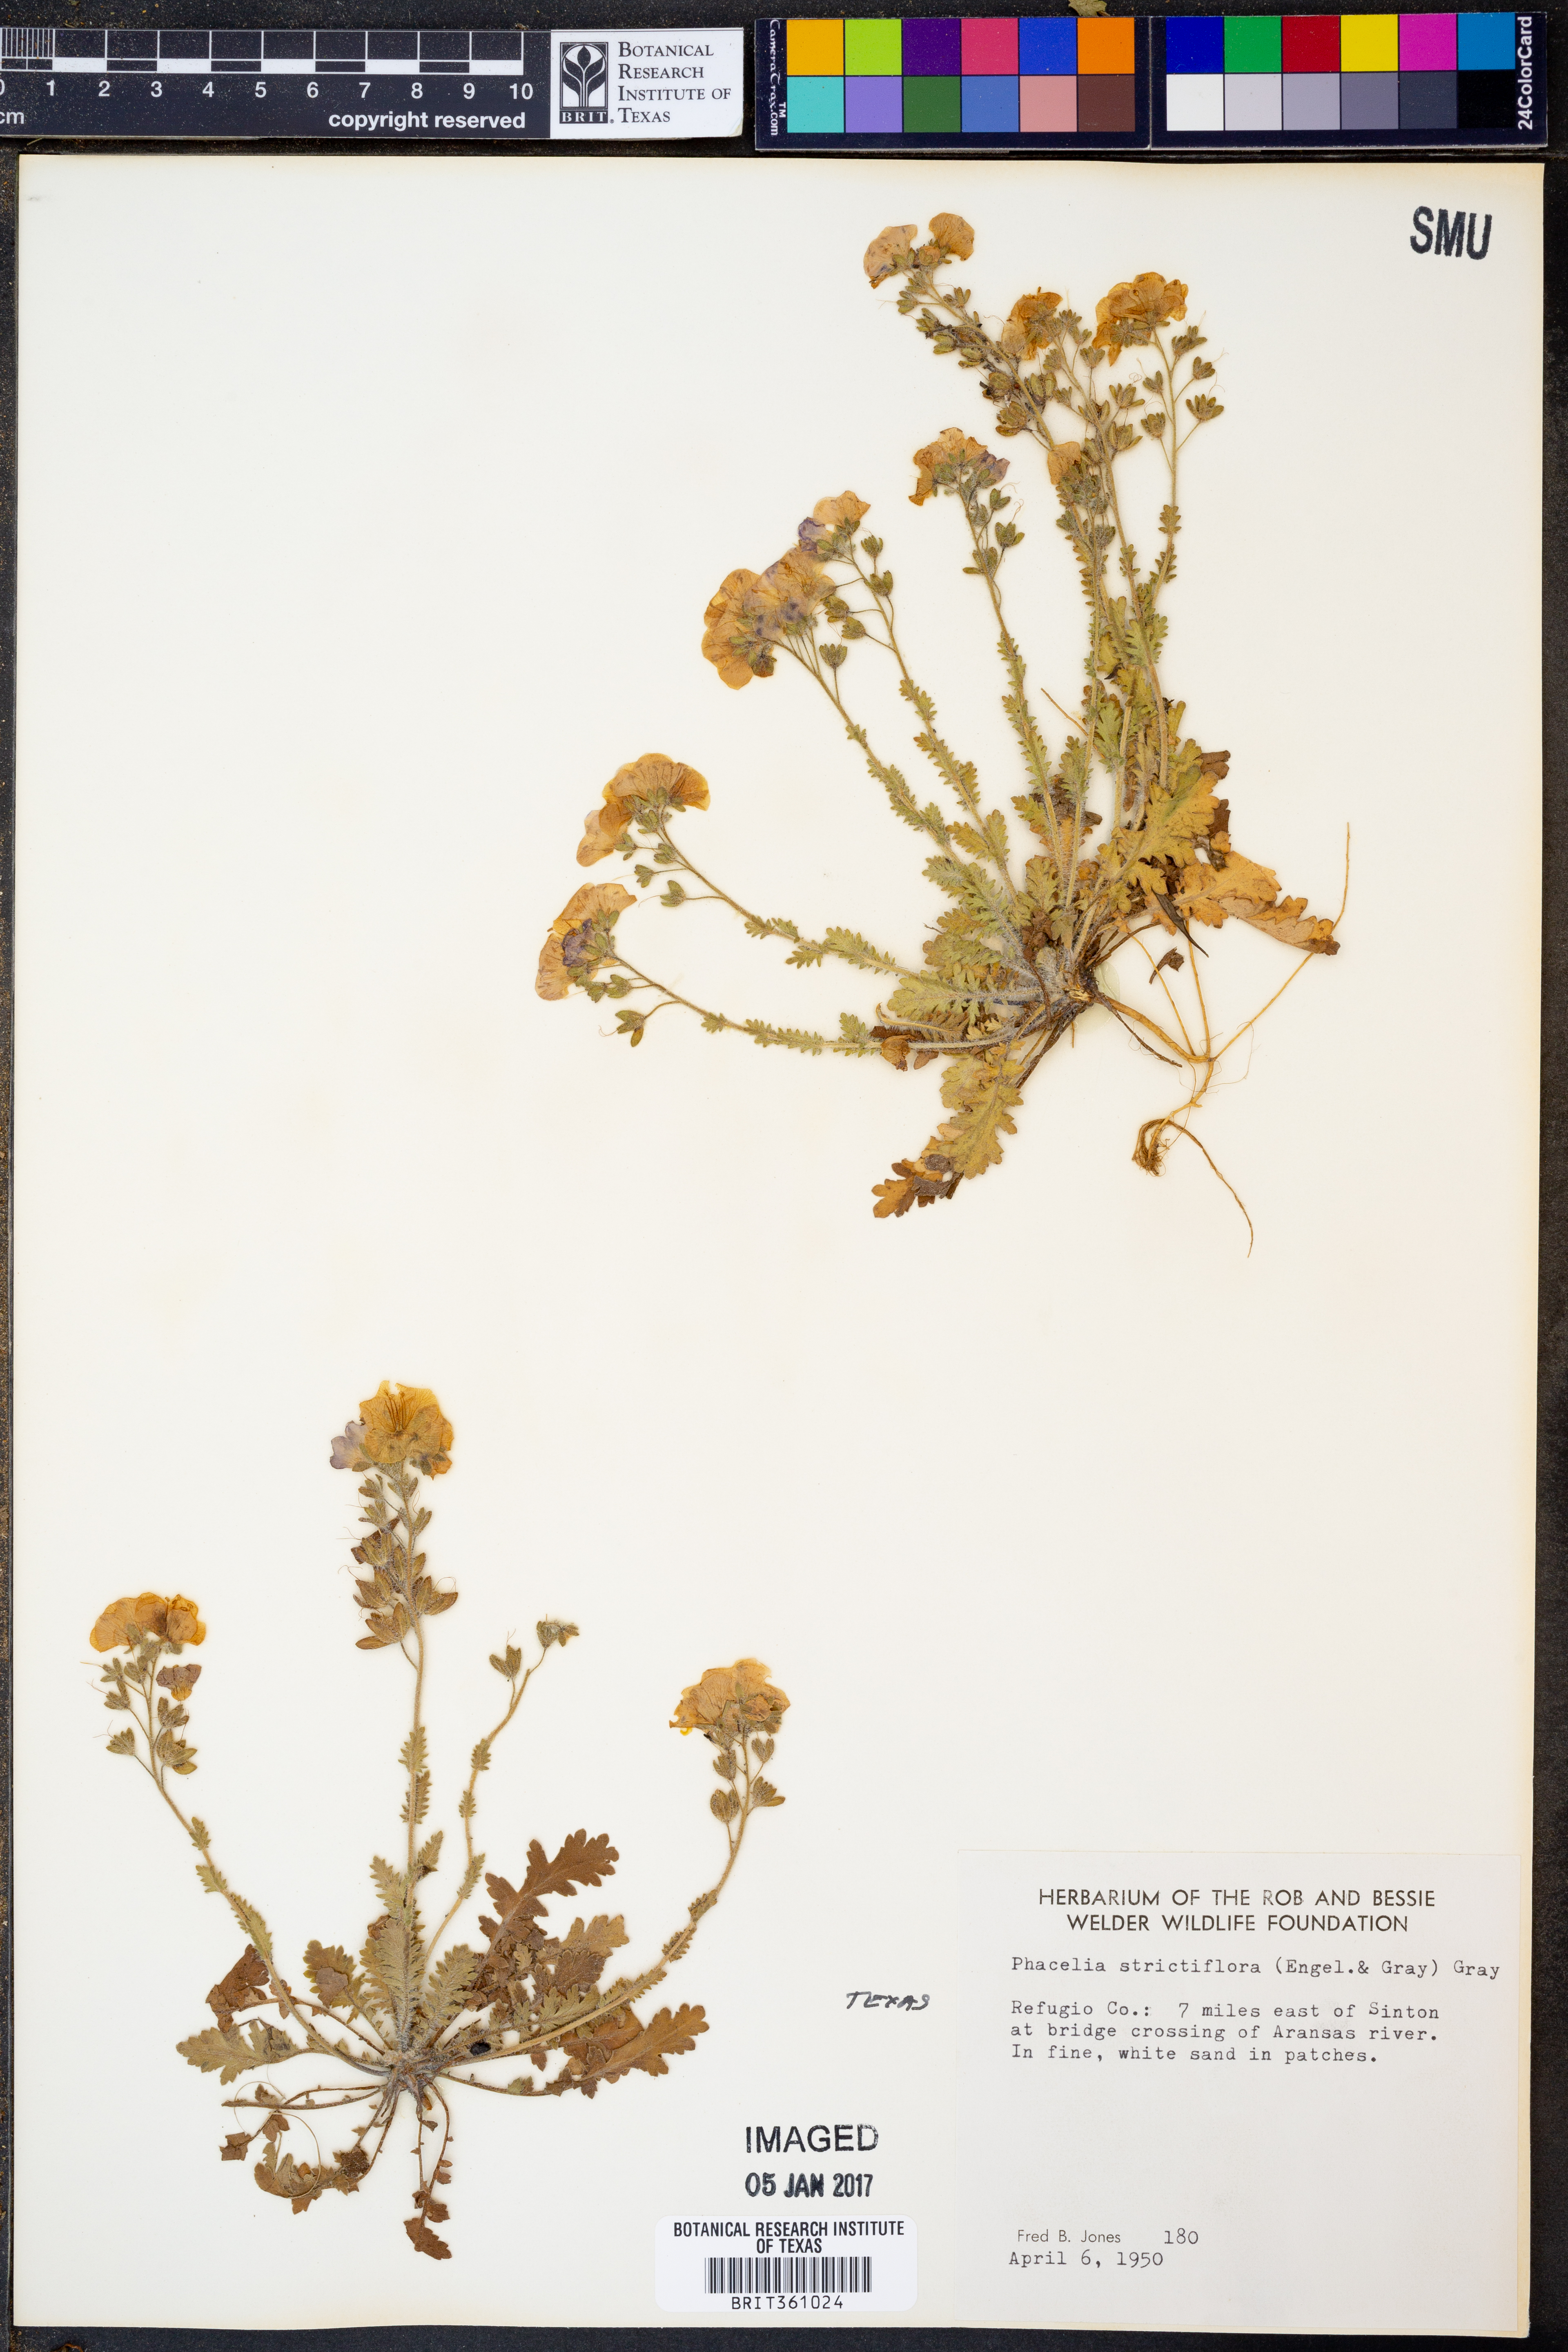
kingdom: Plantae
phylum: Tracheophyta
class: Magnoliopsida
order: Boraginales
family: Hydrophyllaceae
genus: Phacelia
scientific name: Phacelia strictiflora
